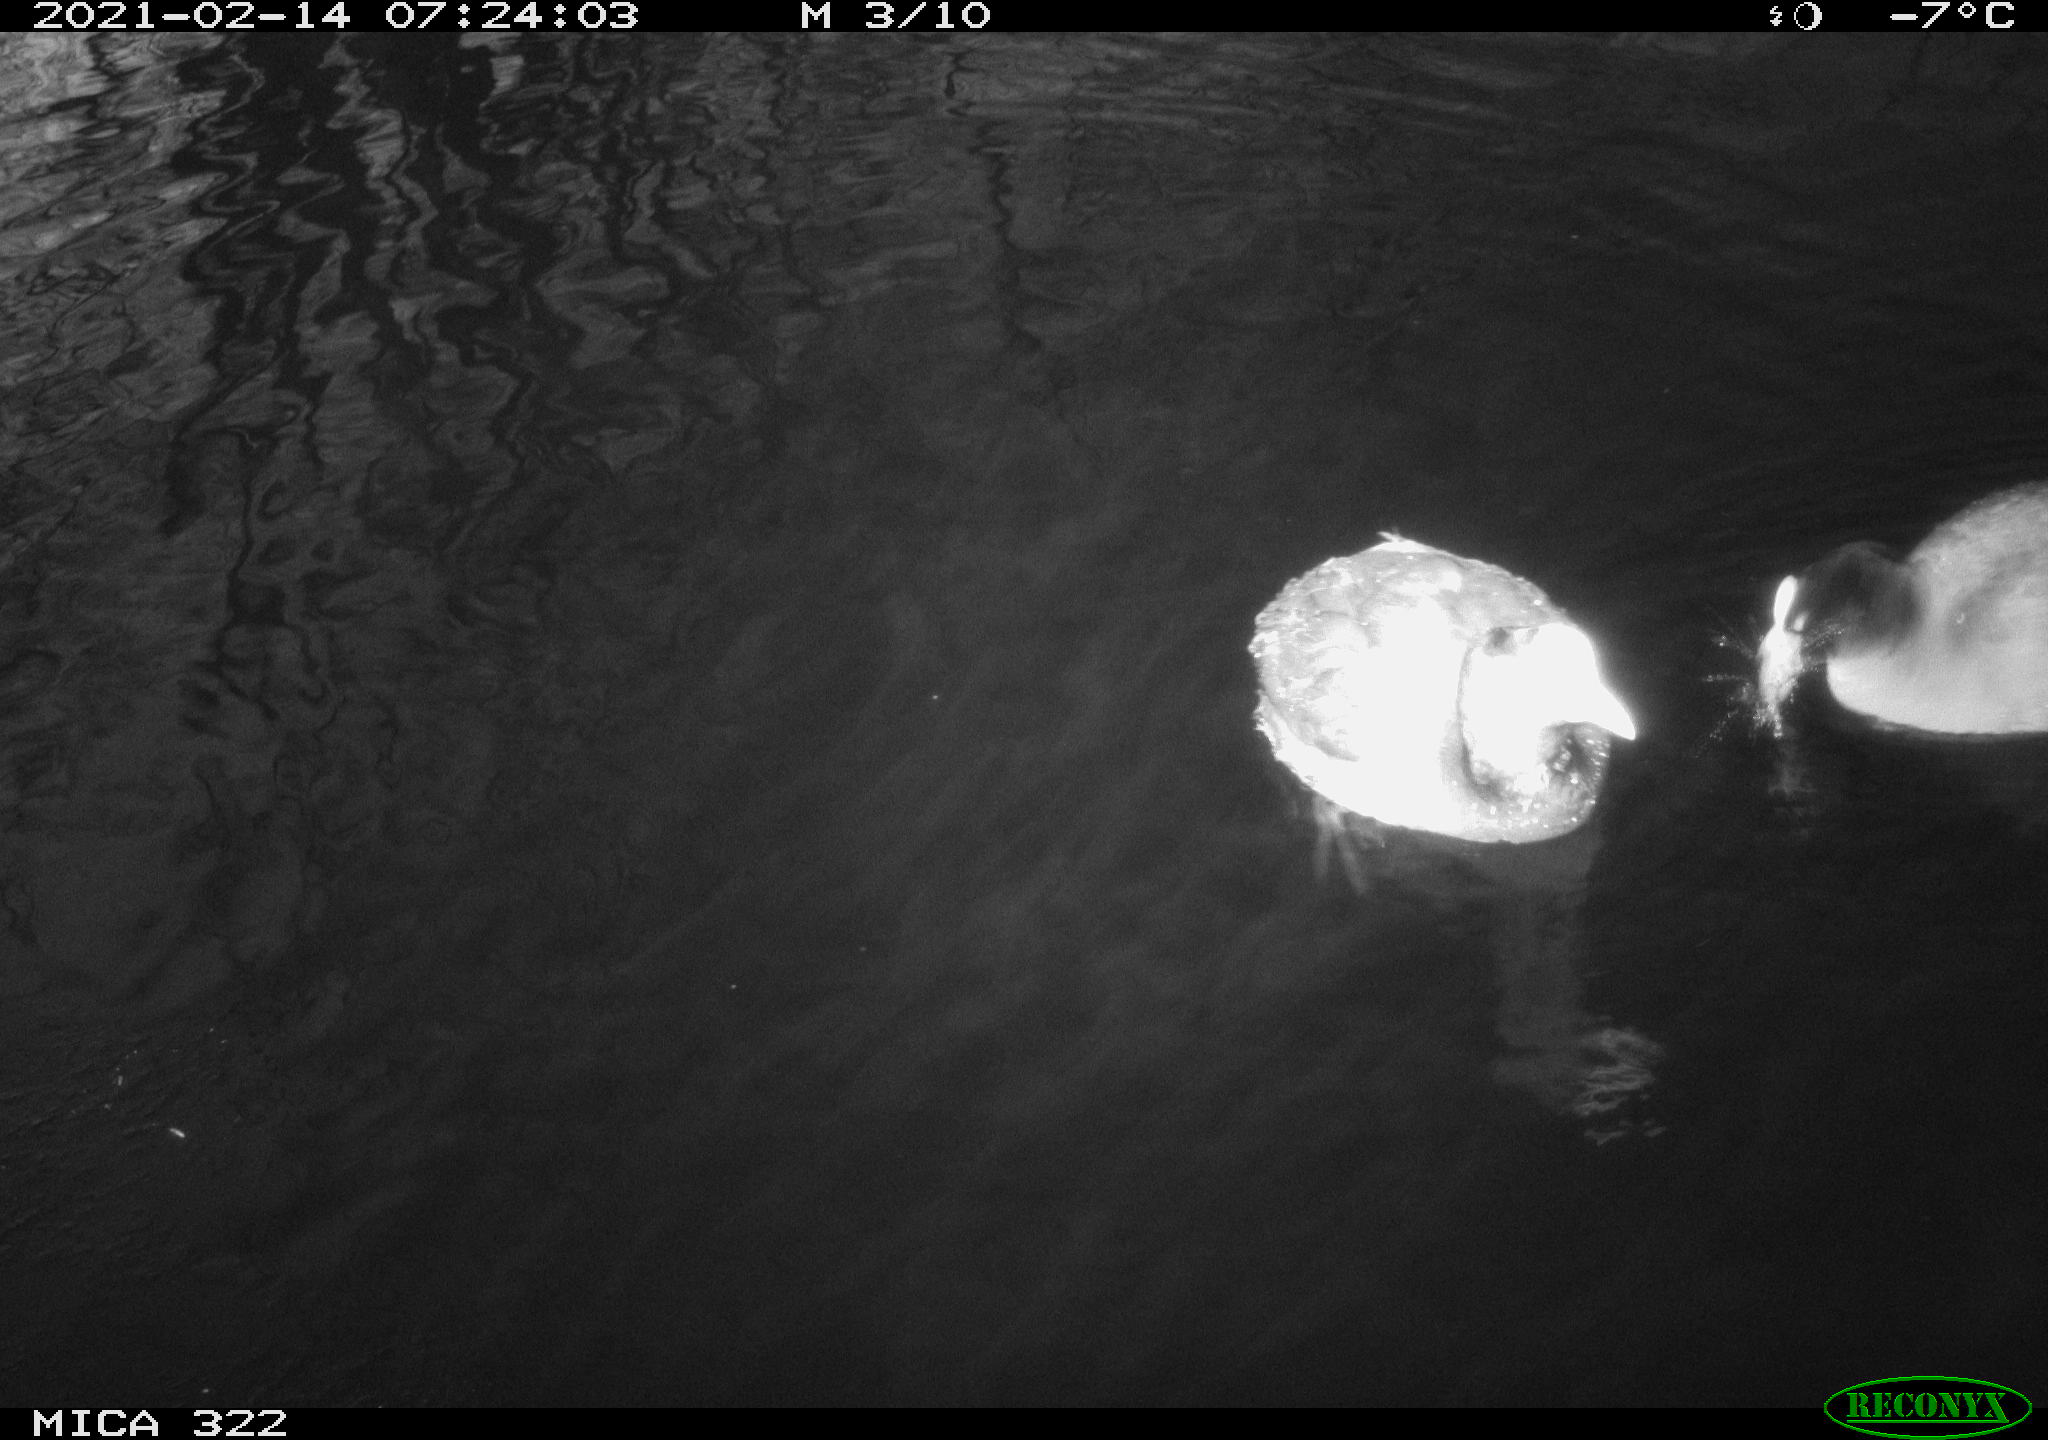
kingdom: Animalia
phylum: Chordata
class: Aves
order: Gruiformes
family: Rallidae
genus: Fulica
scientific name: Fulica atra
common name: Eurasian coot
